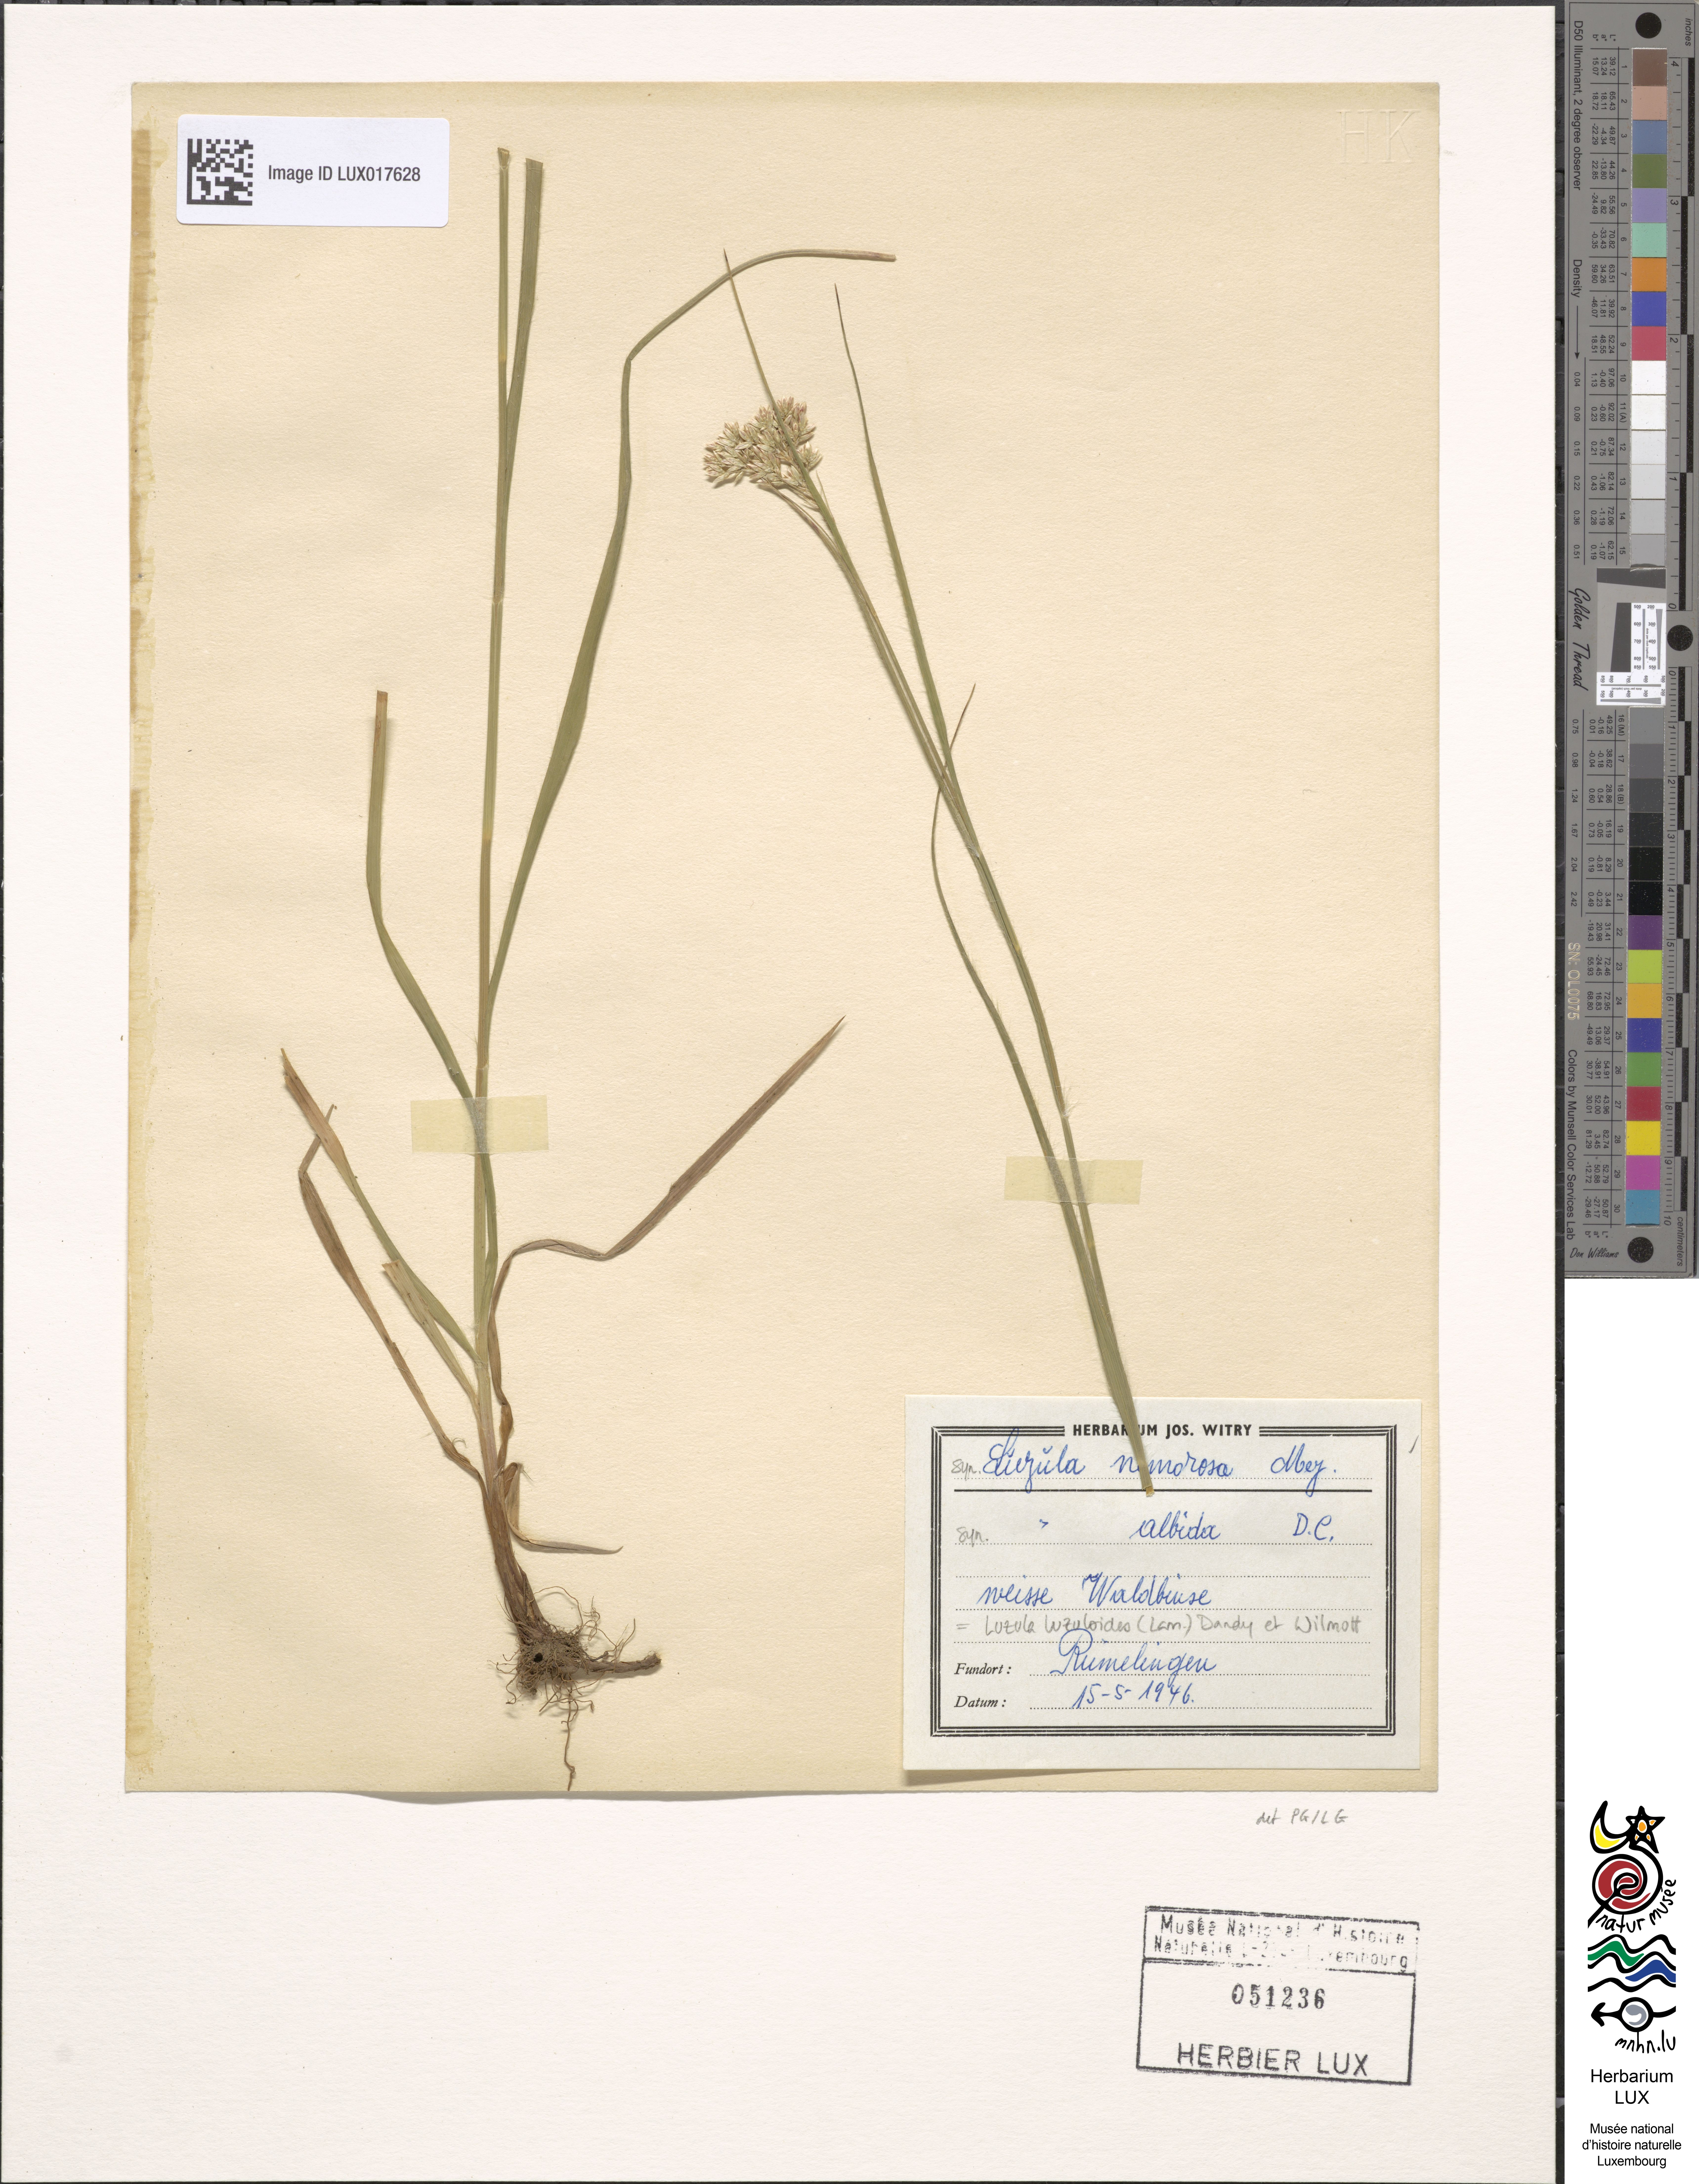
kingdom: Plantae
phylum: Tracheophyta
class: Liliopsida
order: Poales
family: Juncaceae
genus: Luzula
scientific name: Luzula luzuloides
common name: White wood-rush
